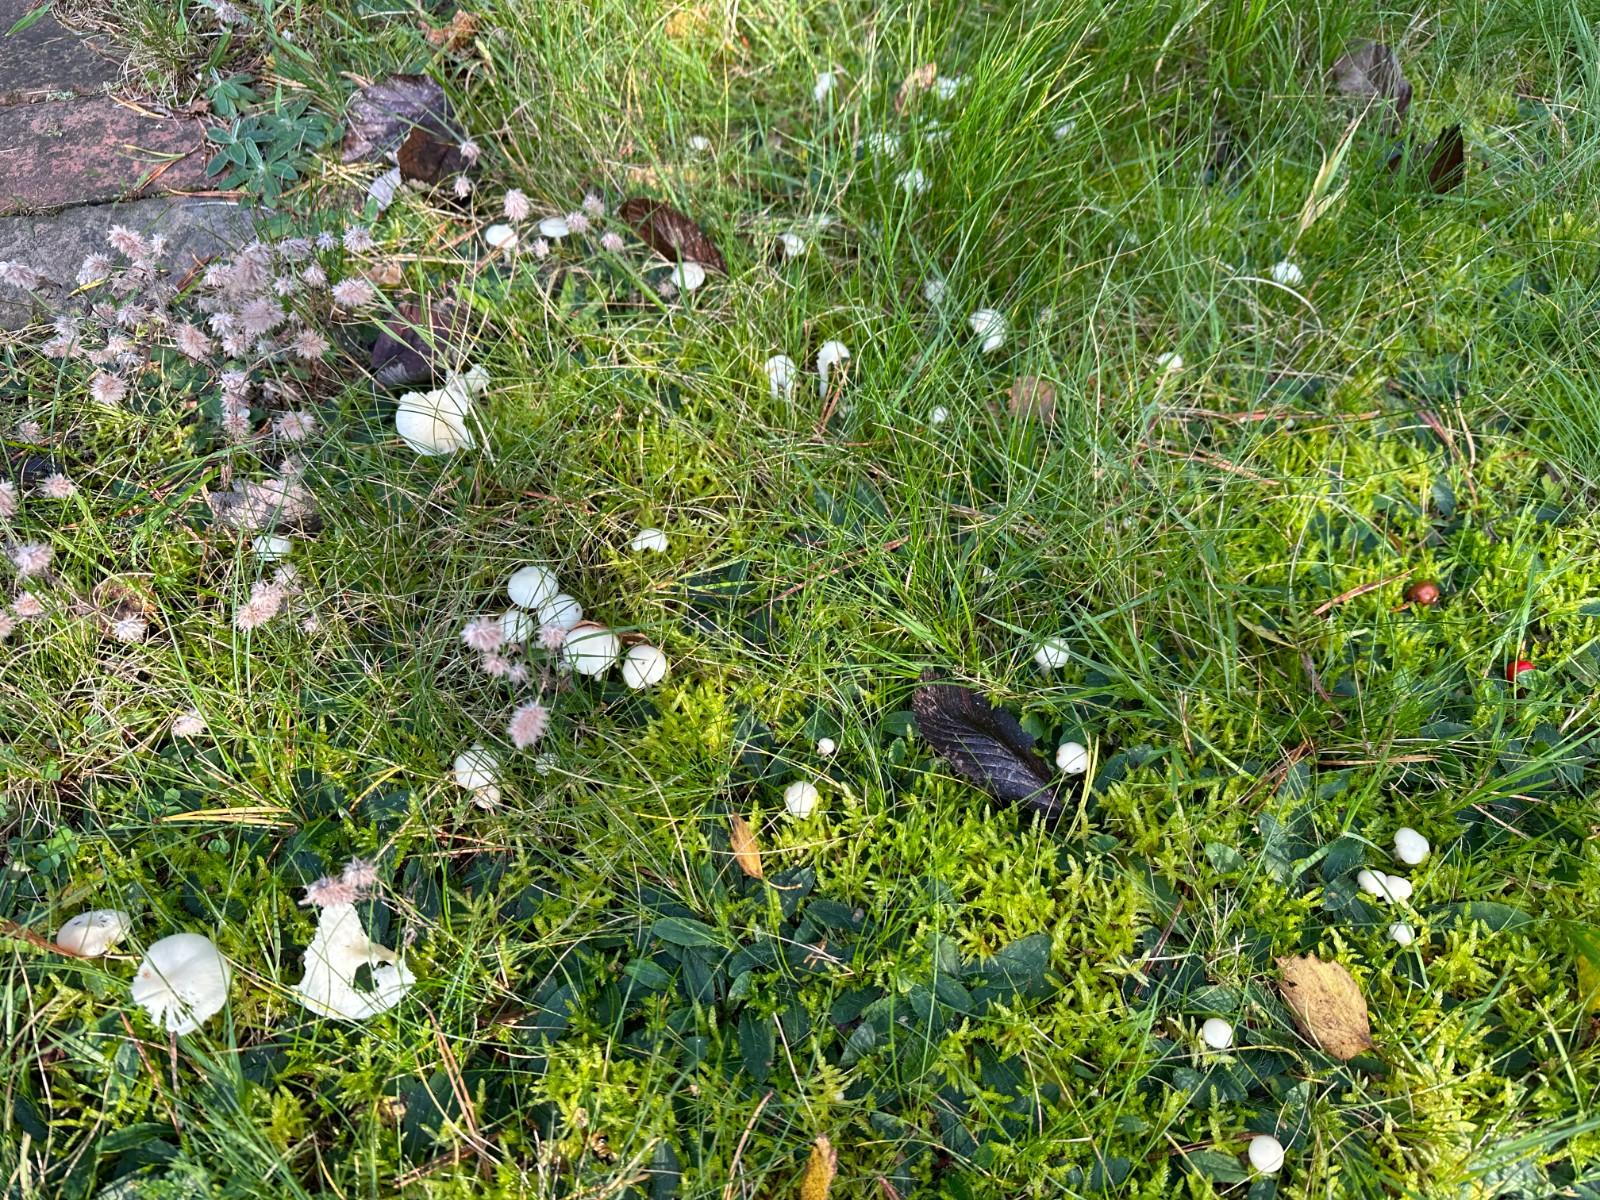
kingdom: Fungi
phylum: Basidiomycota
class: Agaricomycetes
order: Agaricales
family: Hygrophoraceae
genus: Cuphophyllus
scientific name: Cuphophyllus virgineus
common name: snehvid vokshat
